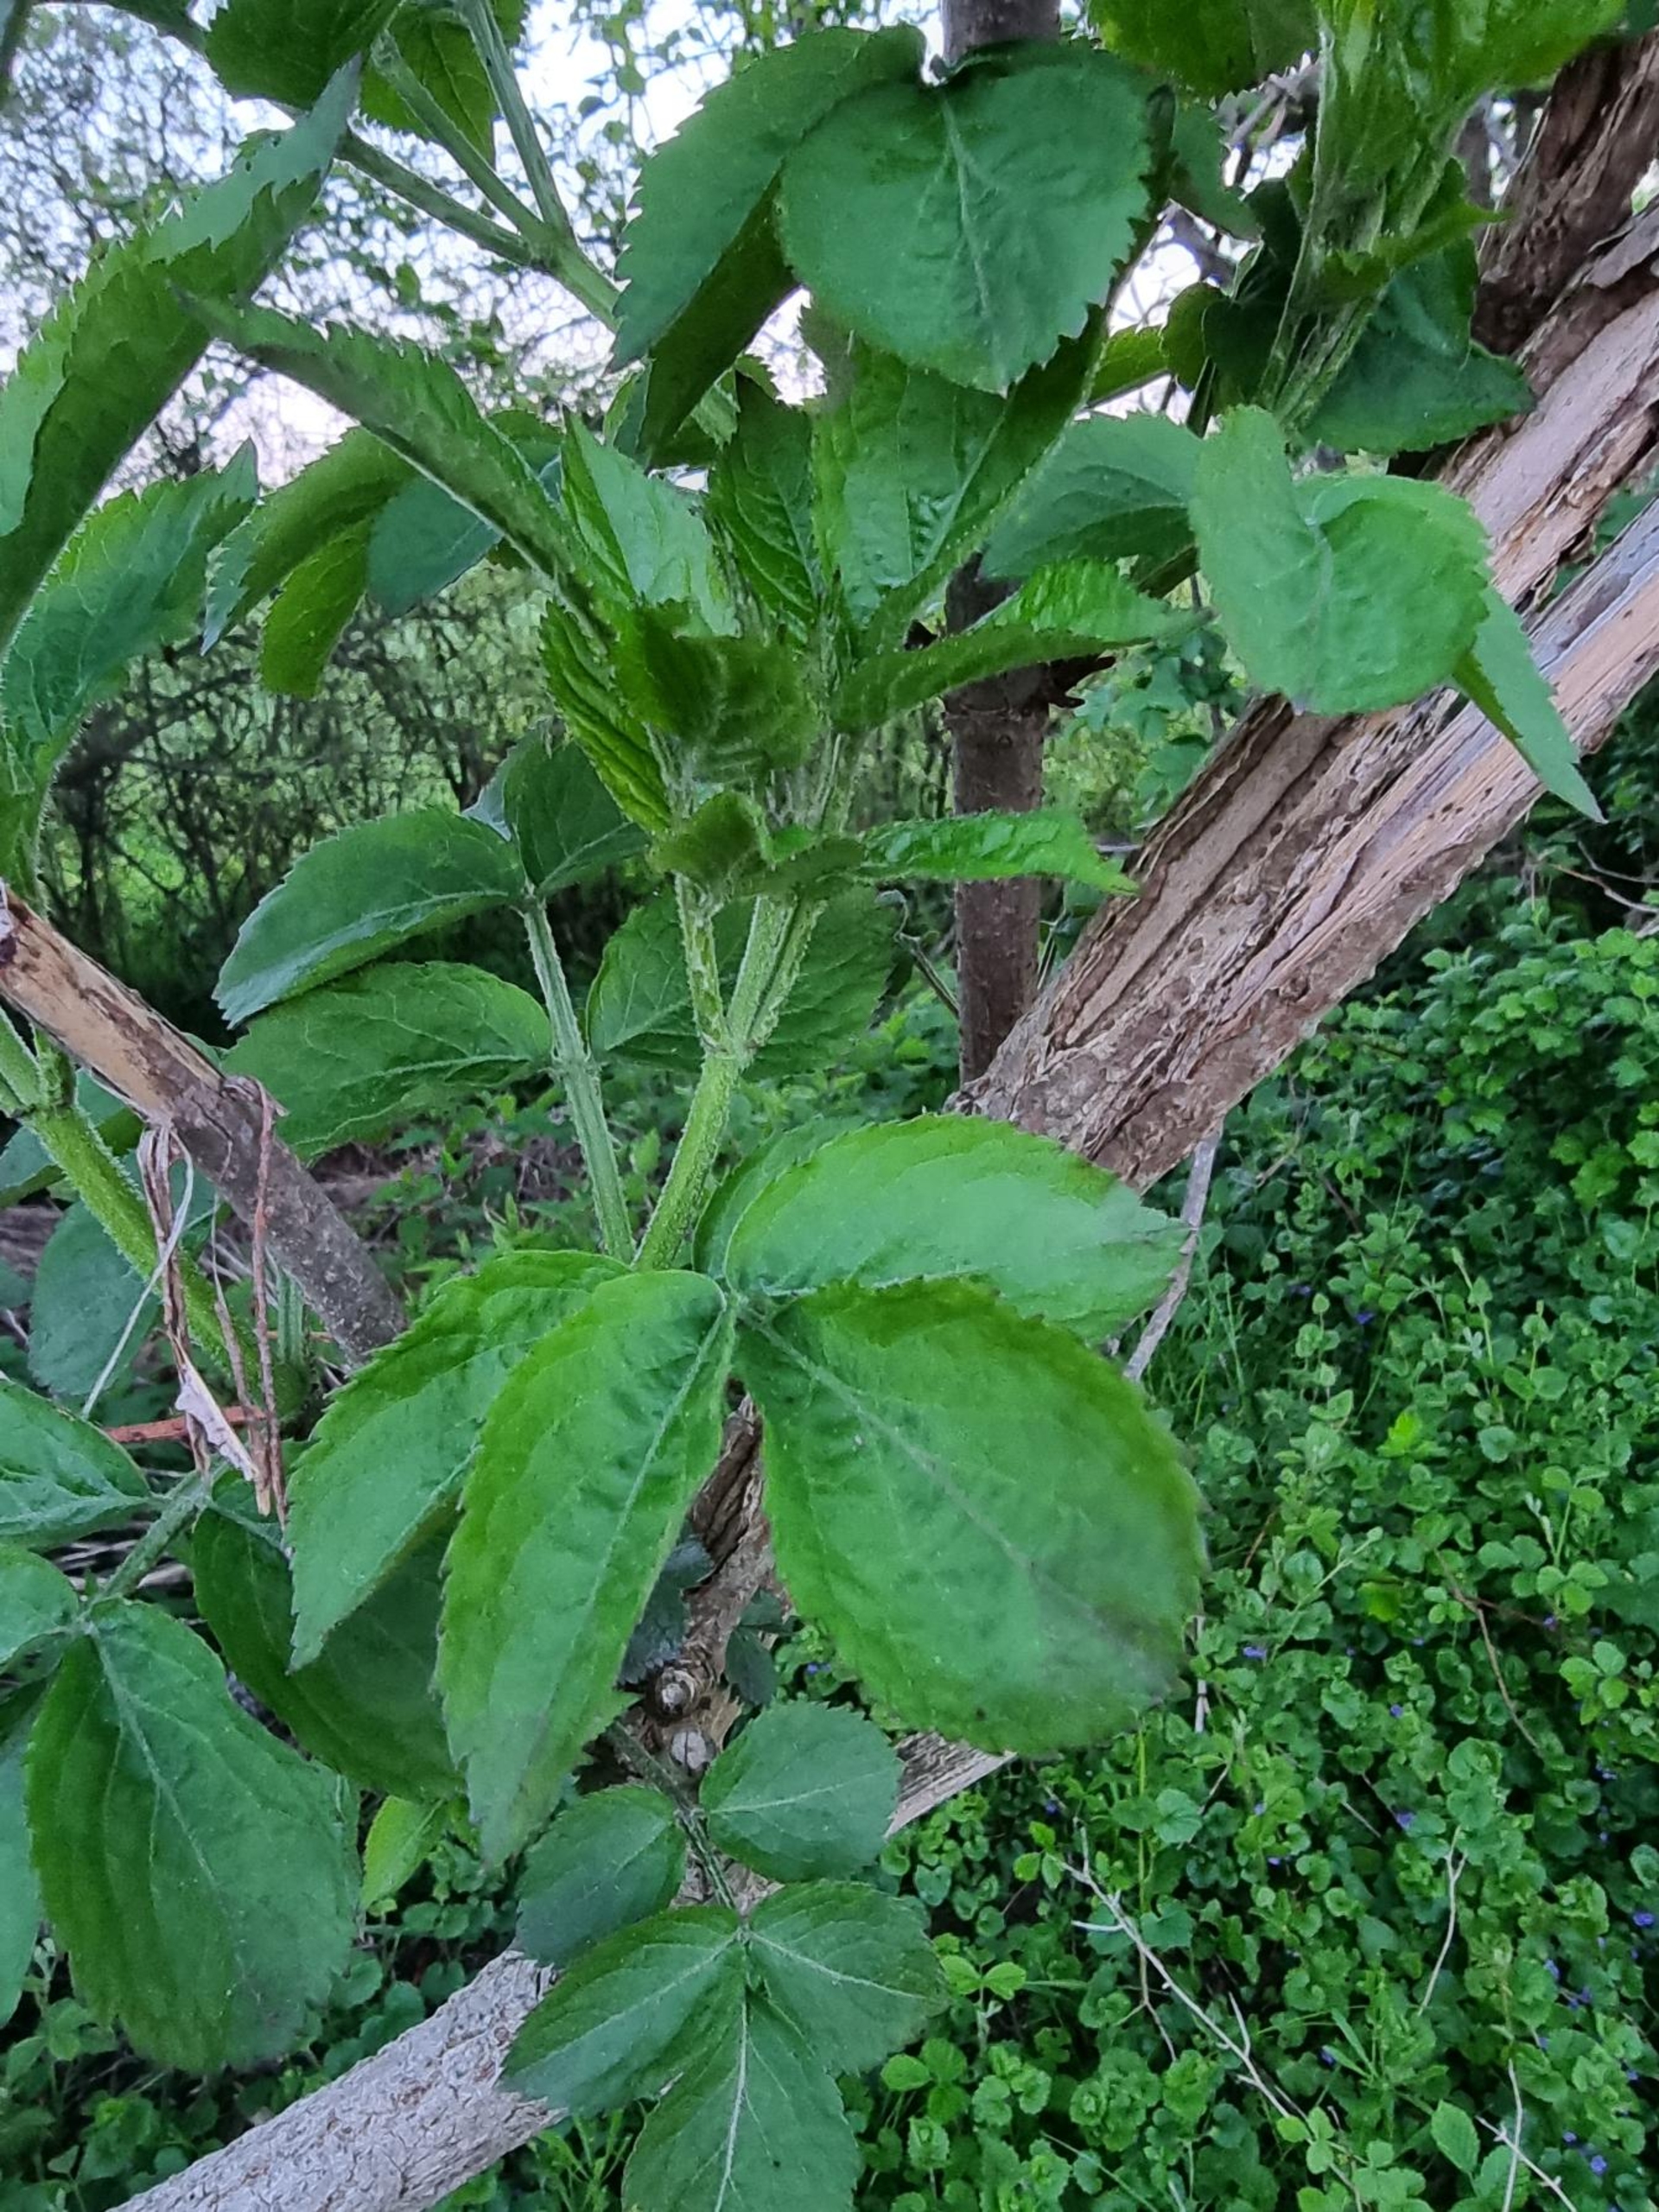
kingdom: Plantae
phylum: Tracheophyta
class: Magnoliopsida
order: Dipsacales
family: Viburnaceae
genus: Sambucus
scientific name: Sambucus nigra
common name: Almindelig hyld
